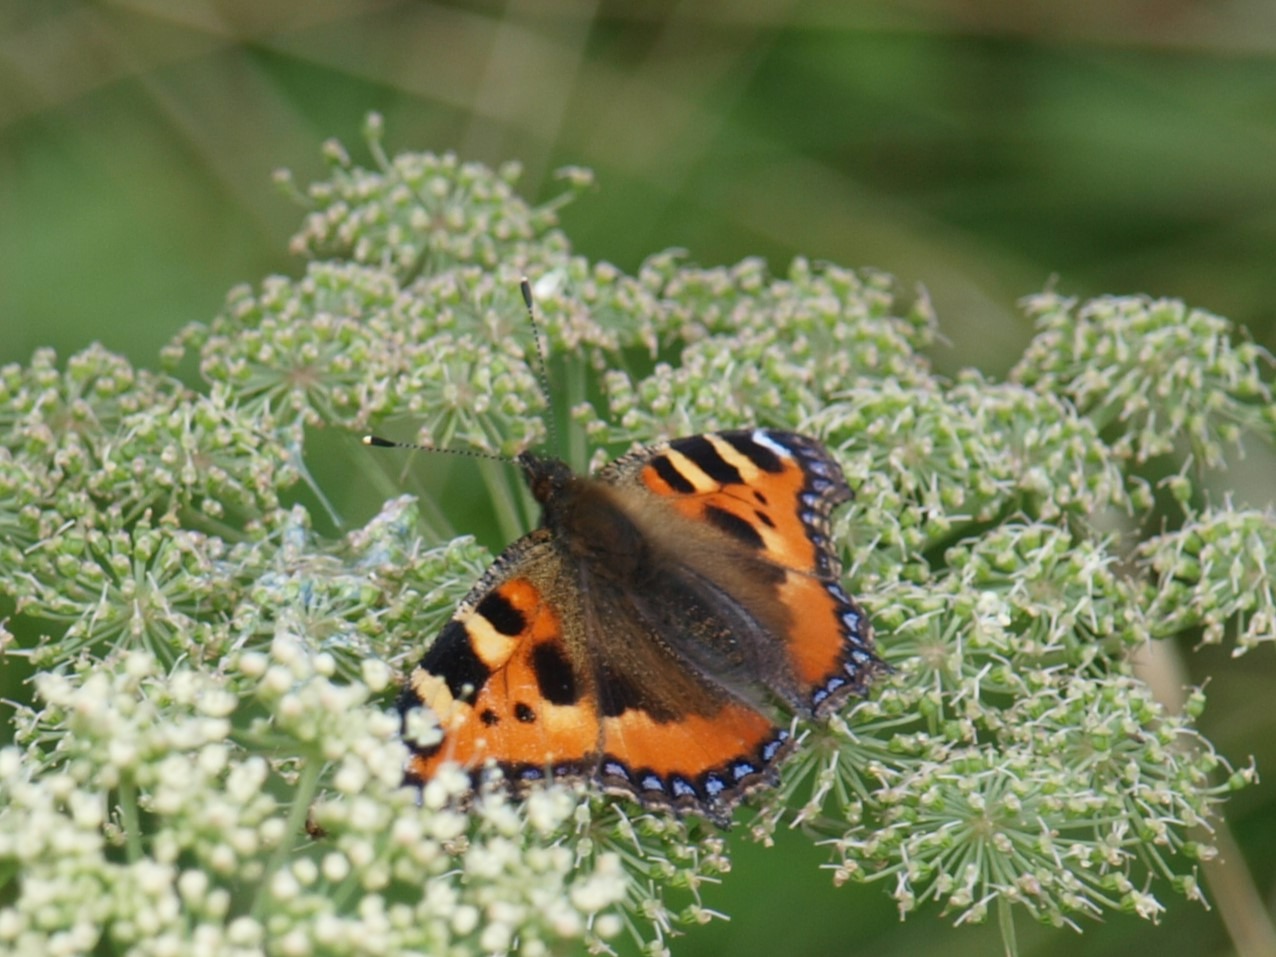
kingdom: Animalia
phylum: Arthropoda
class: Insecta
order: Lepidoptera
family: Nymphalidae
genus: Aglais
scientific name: Aglais urticae
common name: Nældens takvinge
